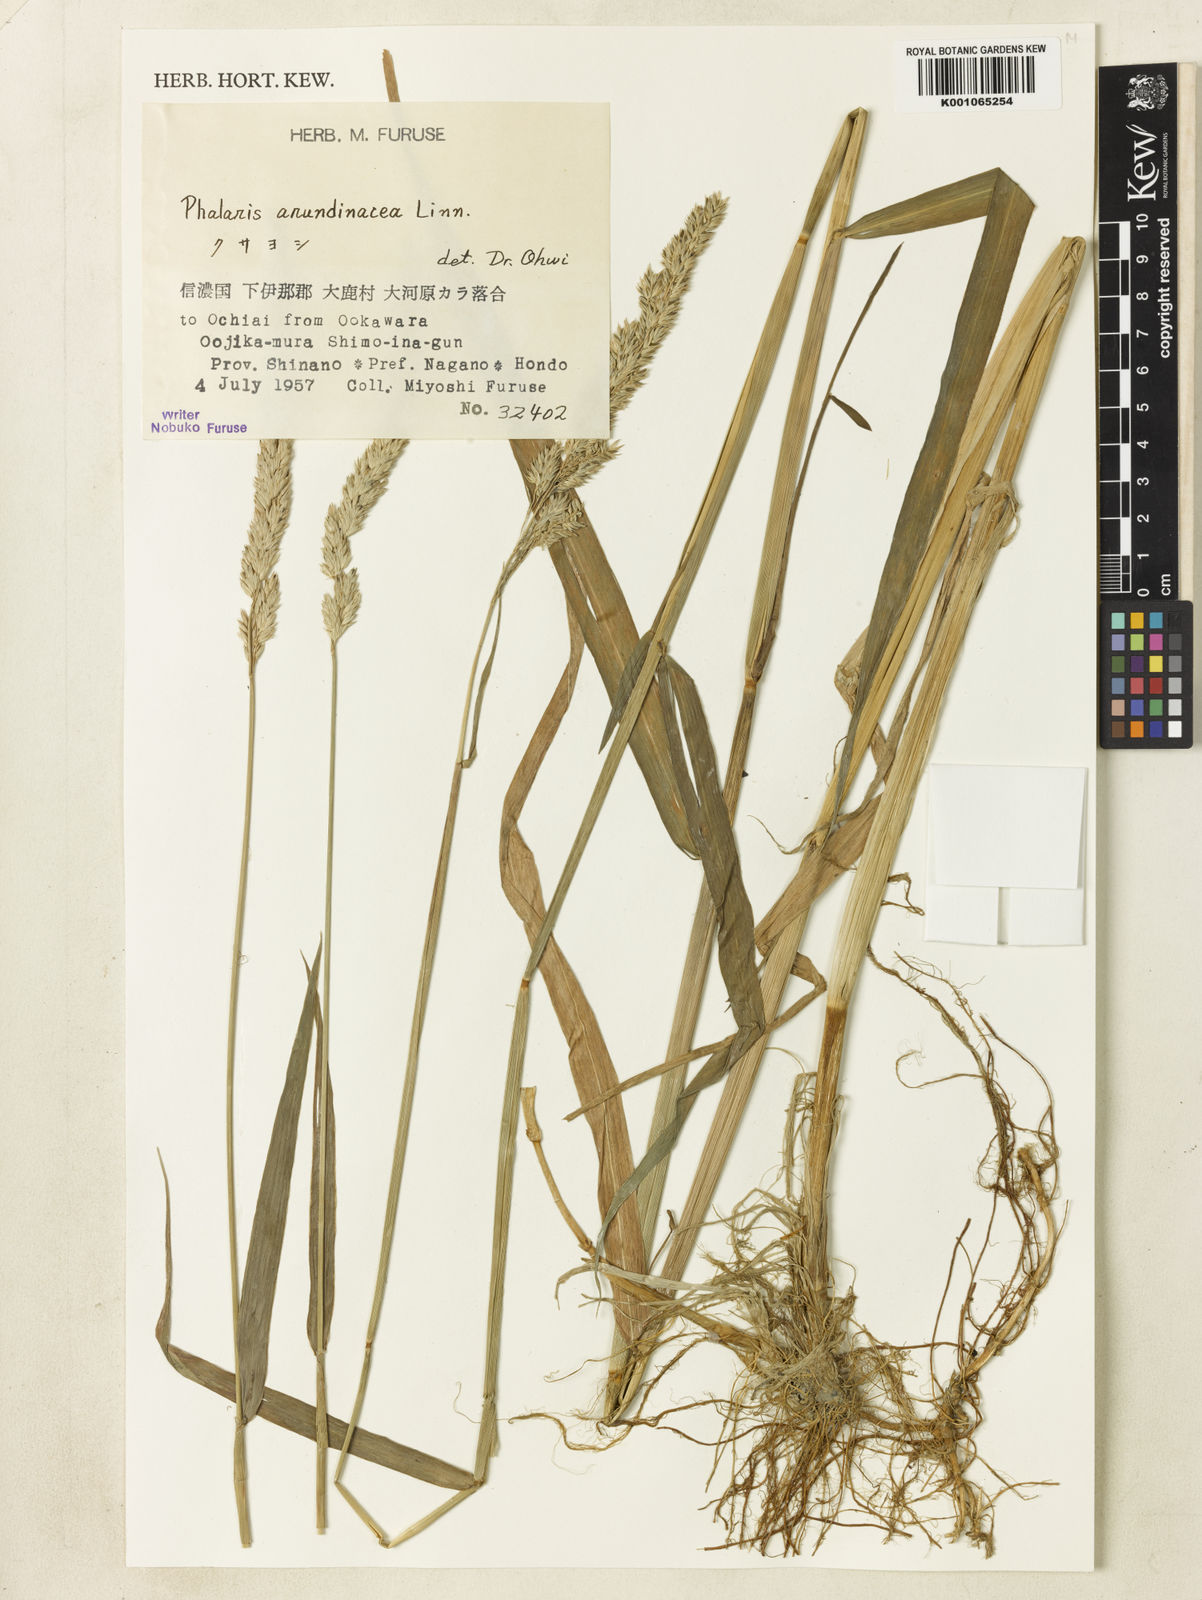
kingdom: Plantae
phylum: Tracheophyta
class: Liliopsida
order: Poales
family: Poaceae
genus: Phalaris
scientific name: Phalaris arundinacea
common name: Reed canary-grass
